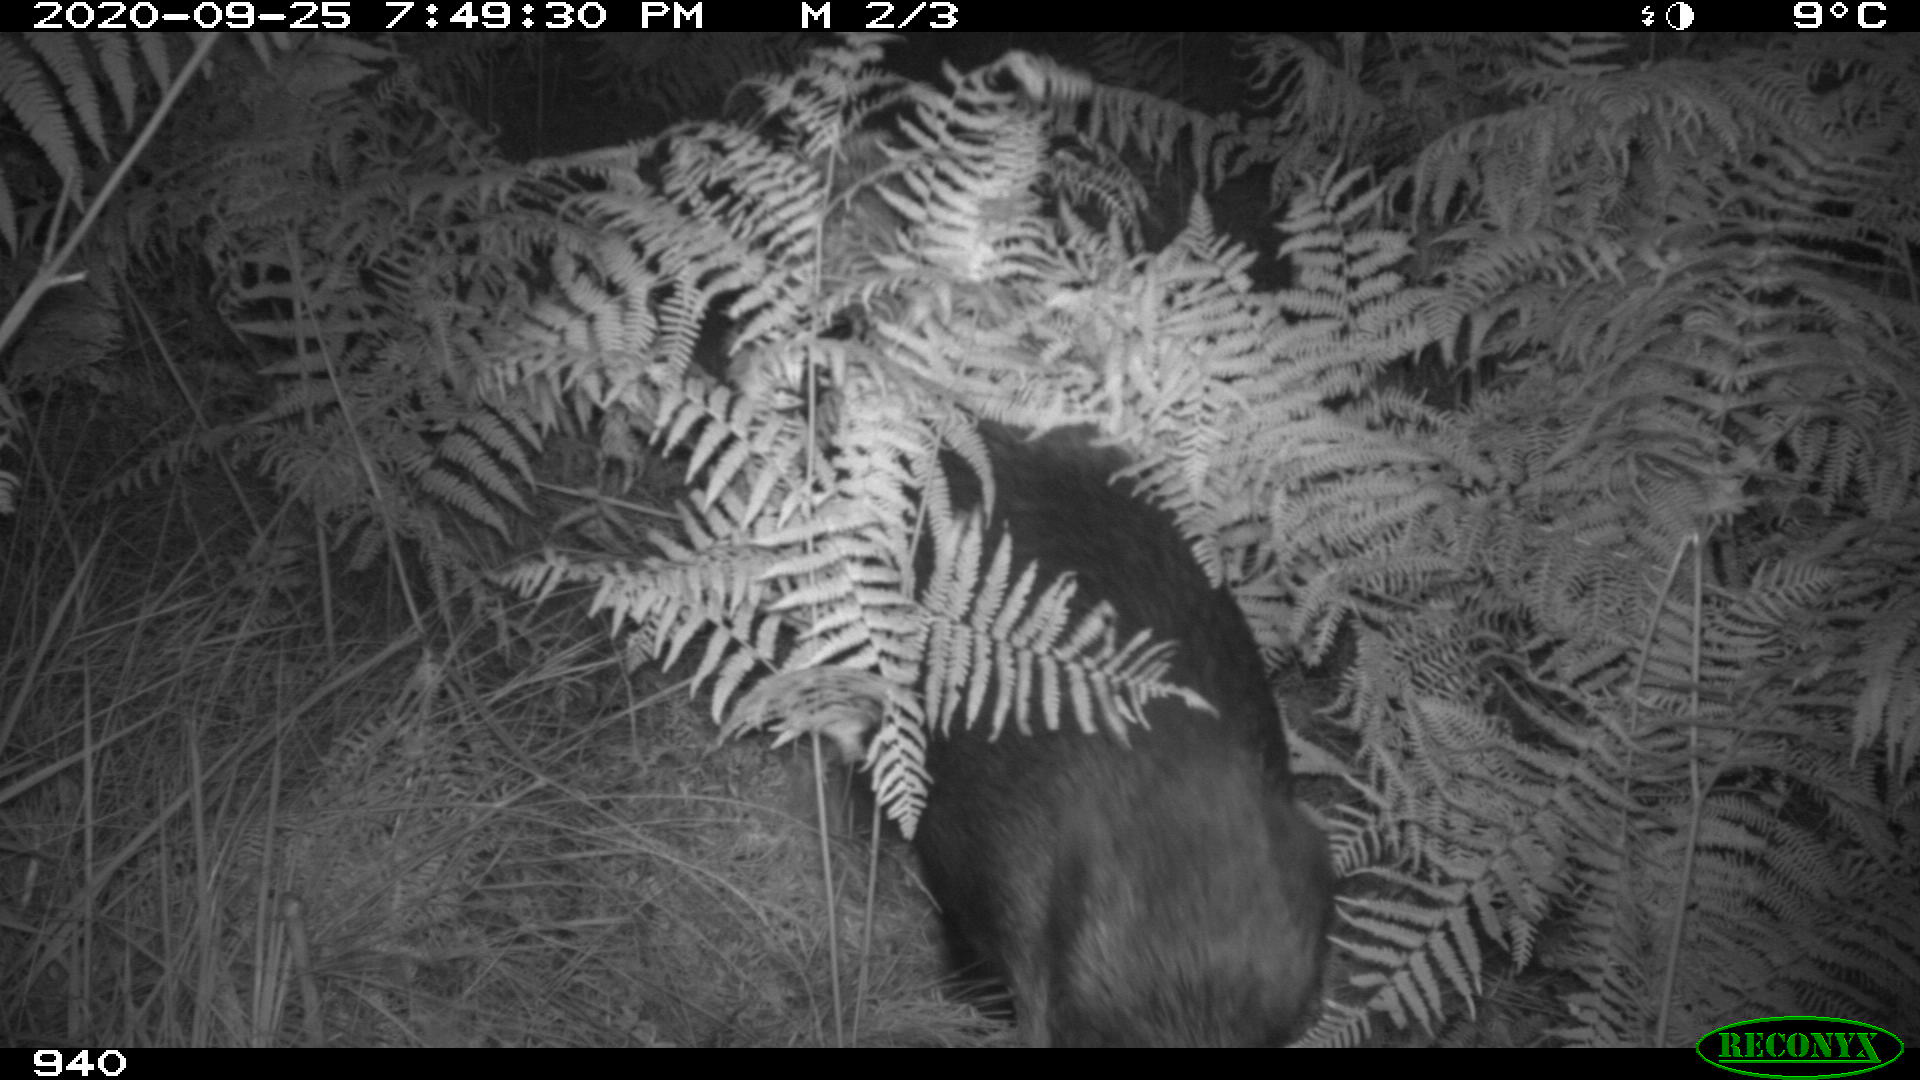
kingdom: Animalia
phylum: Chordata
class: Mammalia
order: Artiodactyla
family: Suidae
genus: Sus
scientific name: Sus scrofa
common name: Wild boar
